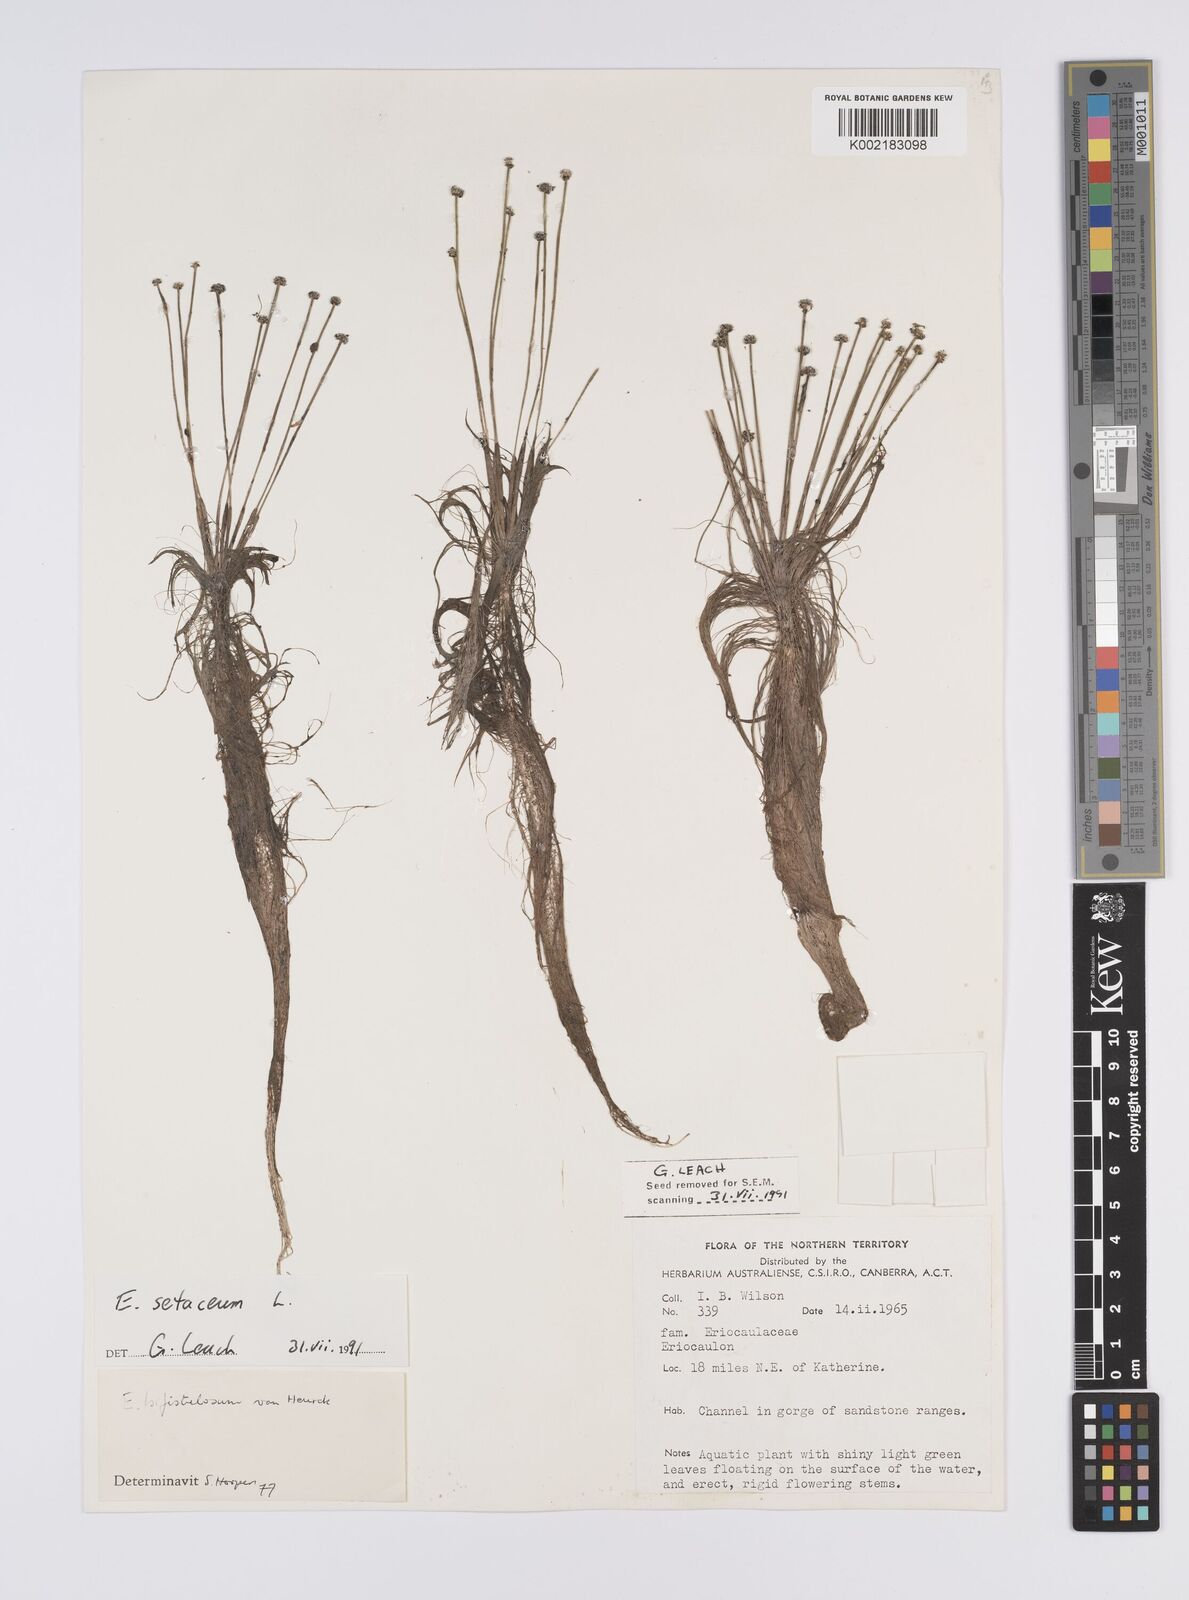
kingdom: Plantae
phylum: Tracheophyta
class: Liliopsida
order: Poales
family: Eriocaulaceae
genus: Eriocaulon
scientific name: Eriocaulon setaceum
